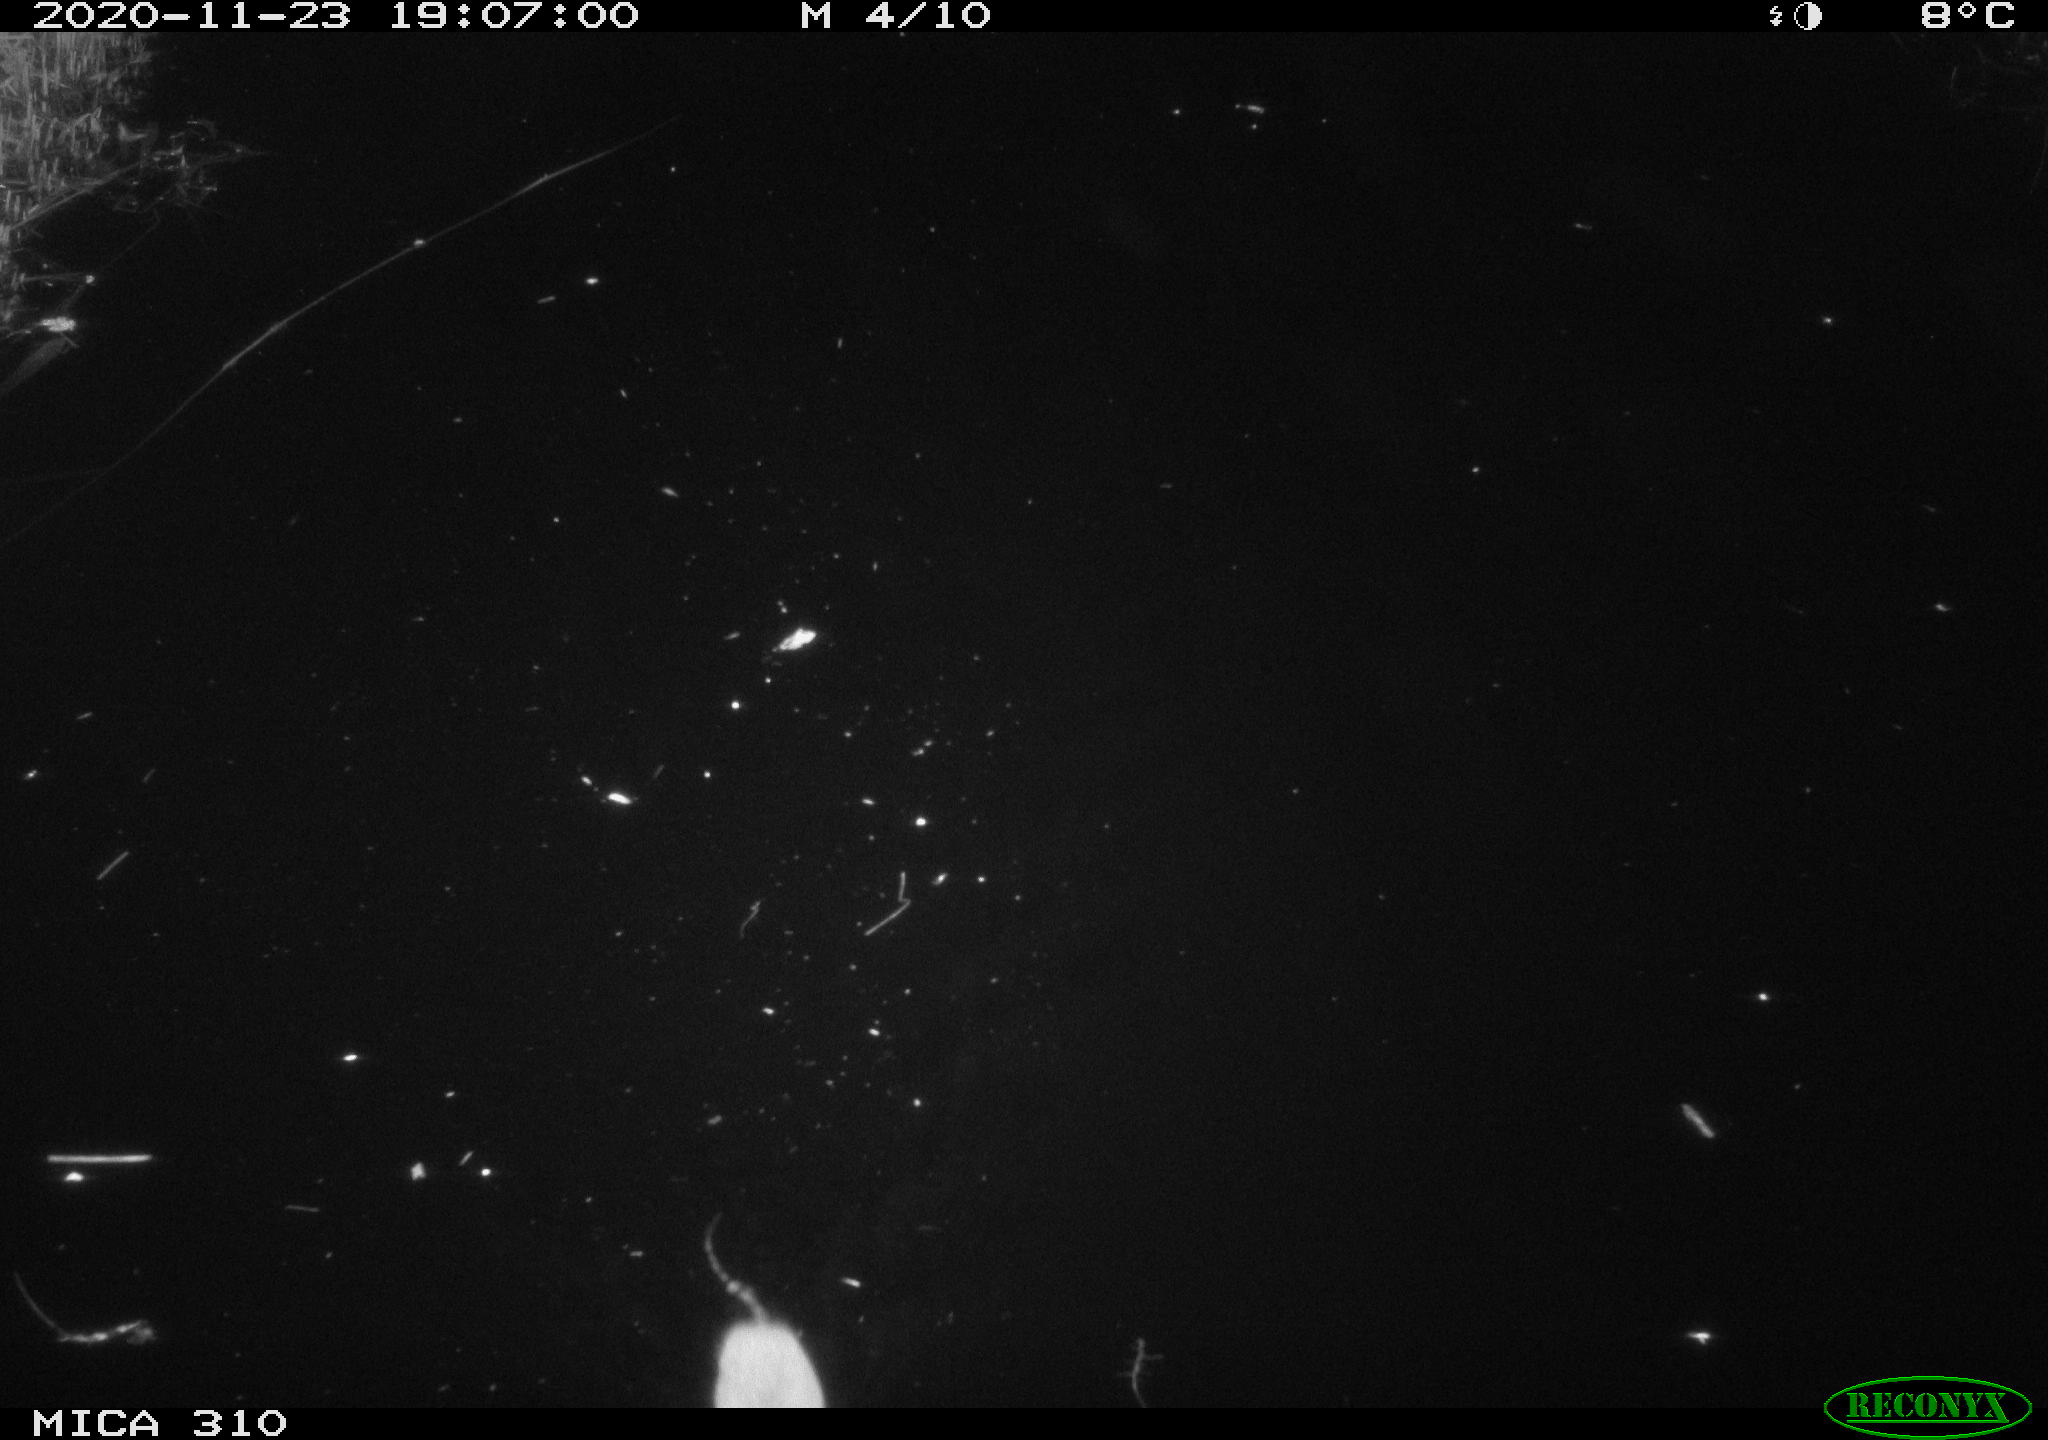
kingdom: Animalia
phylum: Chordata
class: Mammalia
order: Rodentia
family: Cricetidae
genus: Ondatra
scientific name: Ondatra zibethicus
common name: Muskrat
